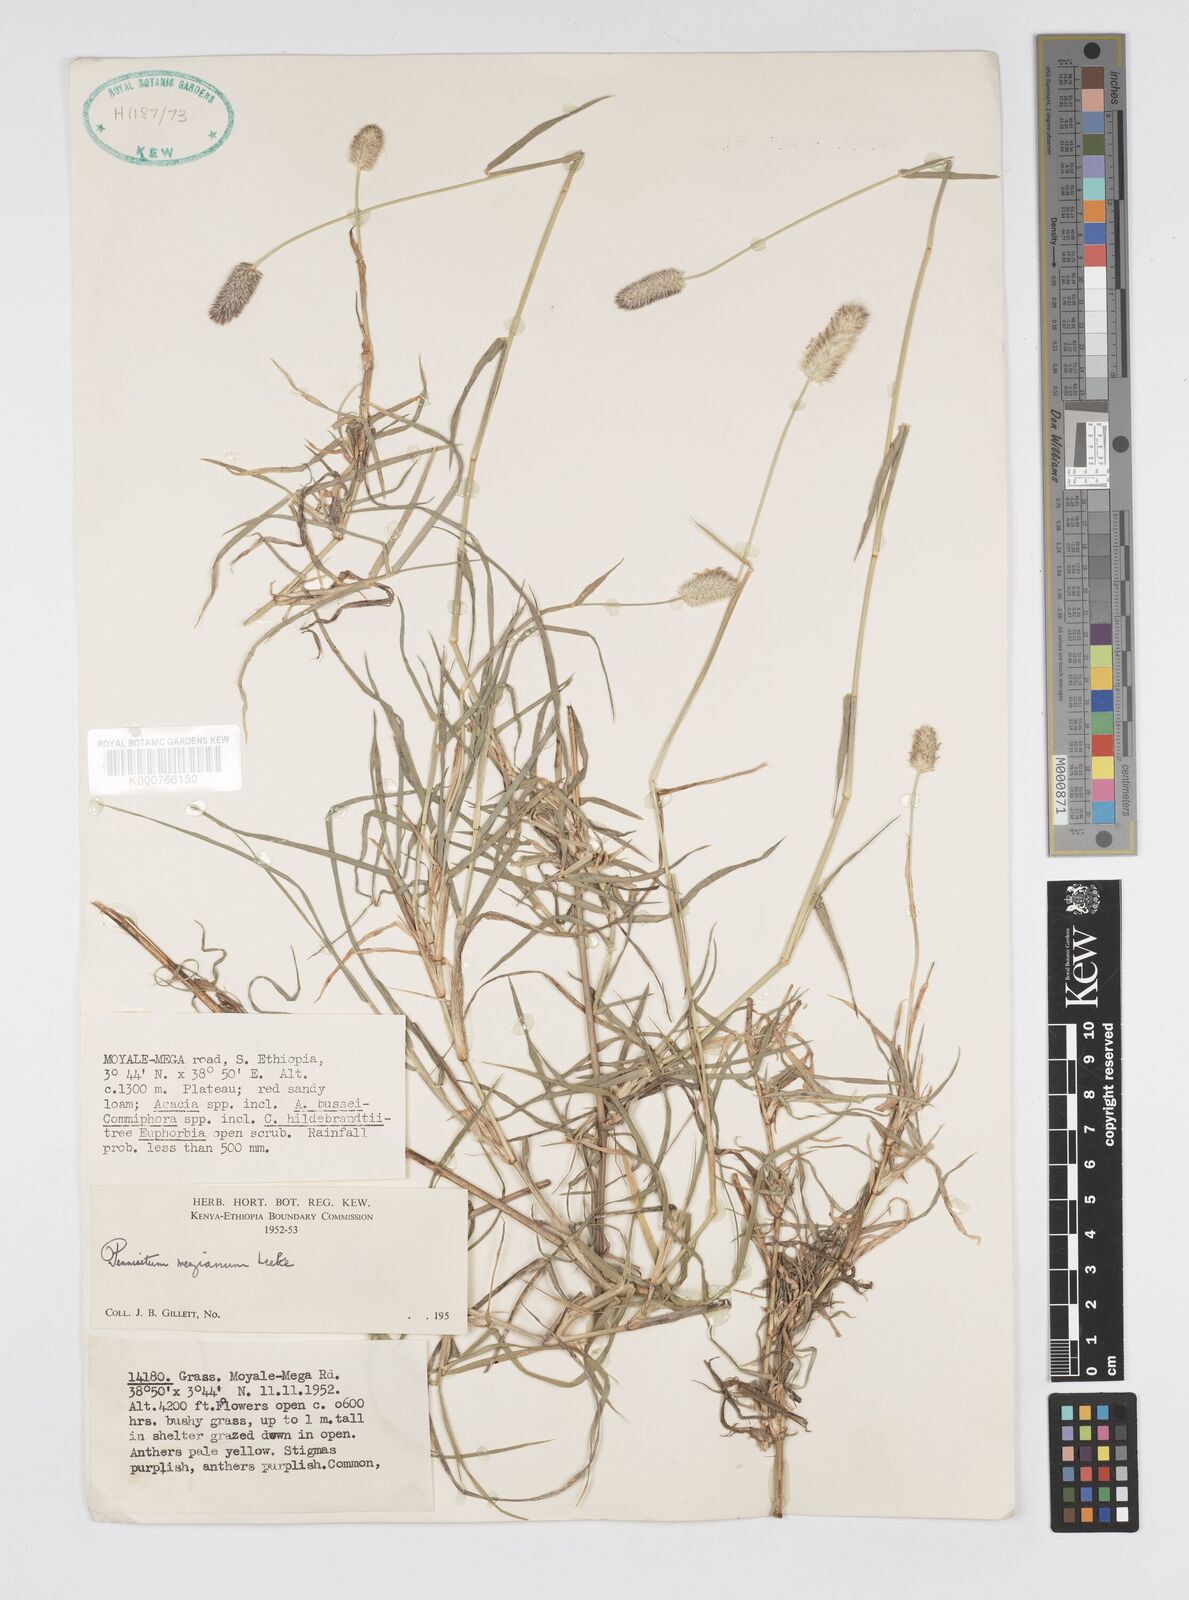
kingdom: Plantae
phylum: Tracheophyta
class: Liliopsida
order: Poales
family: Poaceae
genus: Cenchrus
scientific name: Cenchrus mezianus
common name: Bamboo grass
